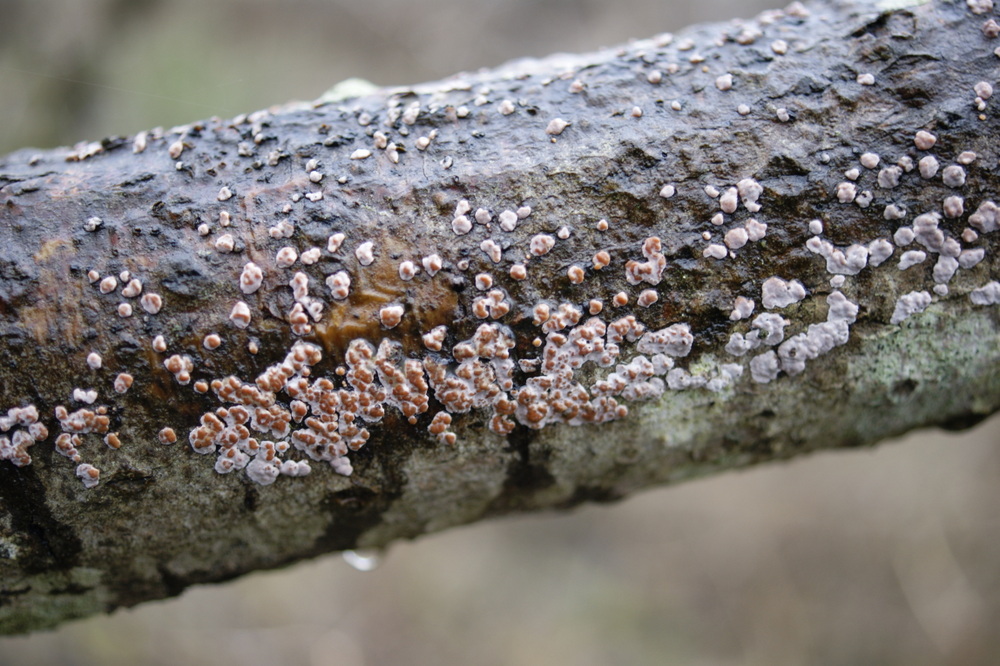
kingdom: Fungi
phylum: Basidiomycota
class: Agaricomycetes
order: Russulales
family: Peniophoraceae
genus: Peniophora
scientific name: Peniophora polygonia
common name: polygon-voksskind
